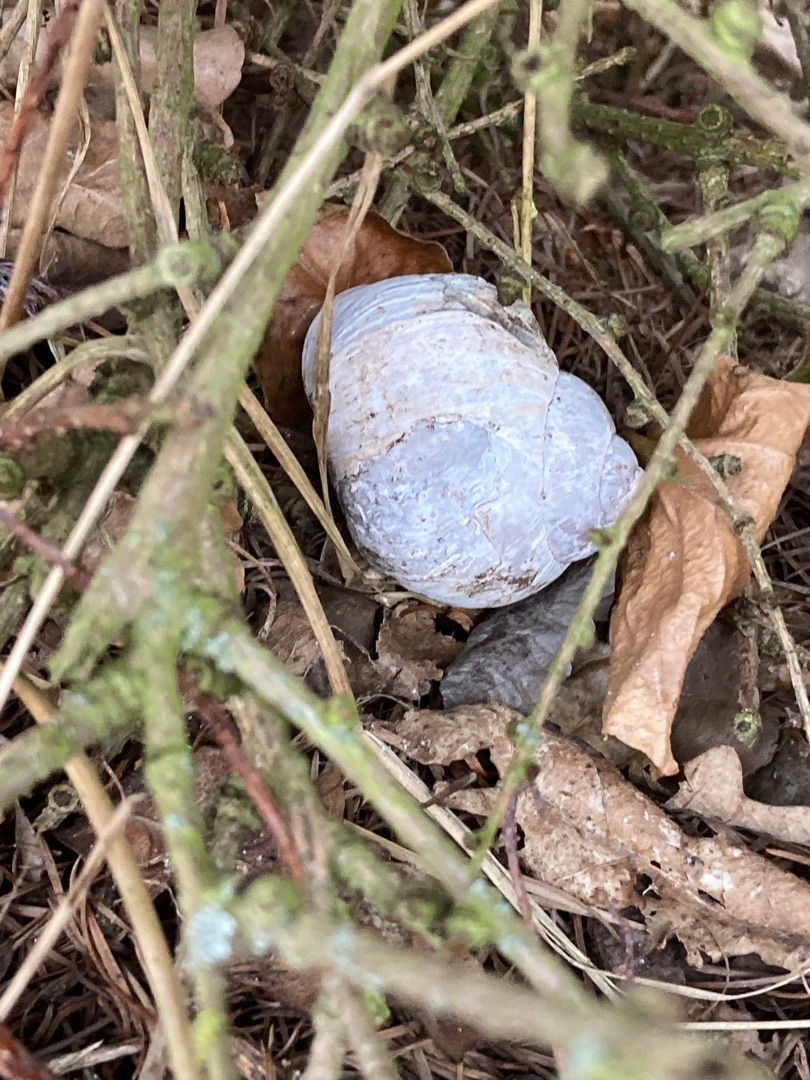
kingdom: Animalia
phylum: Mollusca
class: Gastropoda
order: Stylommatophora
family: Helicidae
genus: Helix
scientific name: Helix pomatia
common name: Vinbjergsnegl
